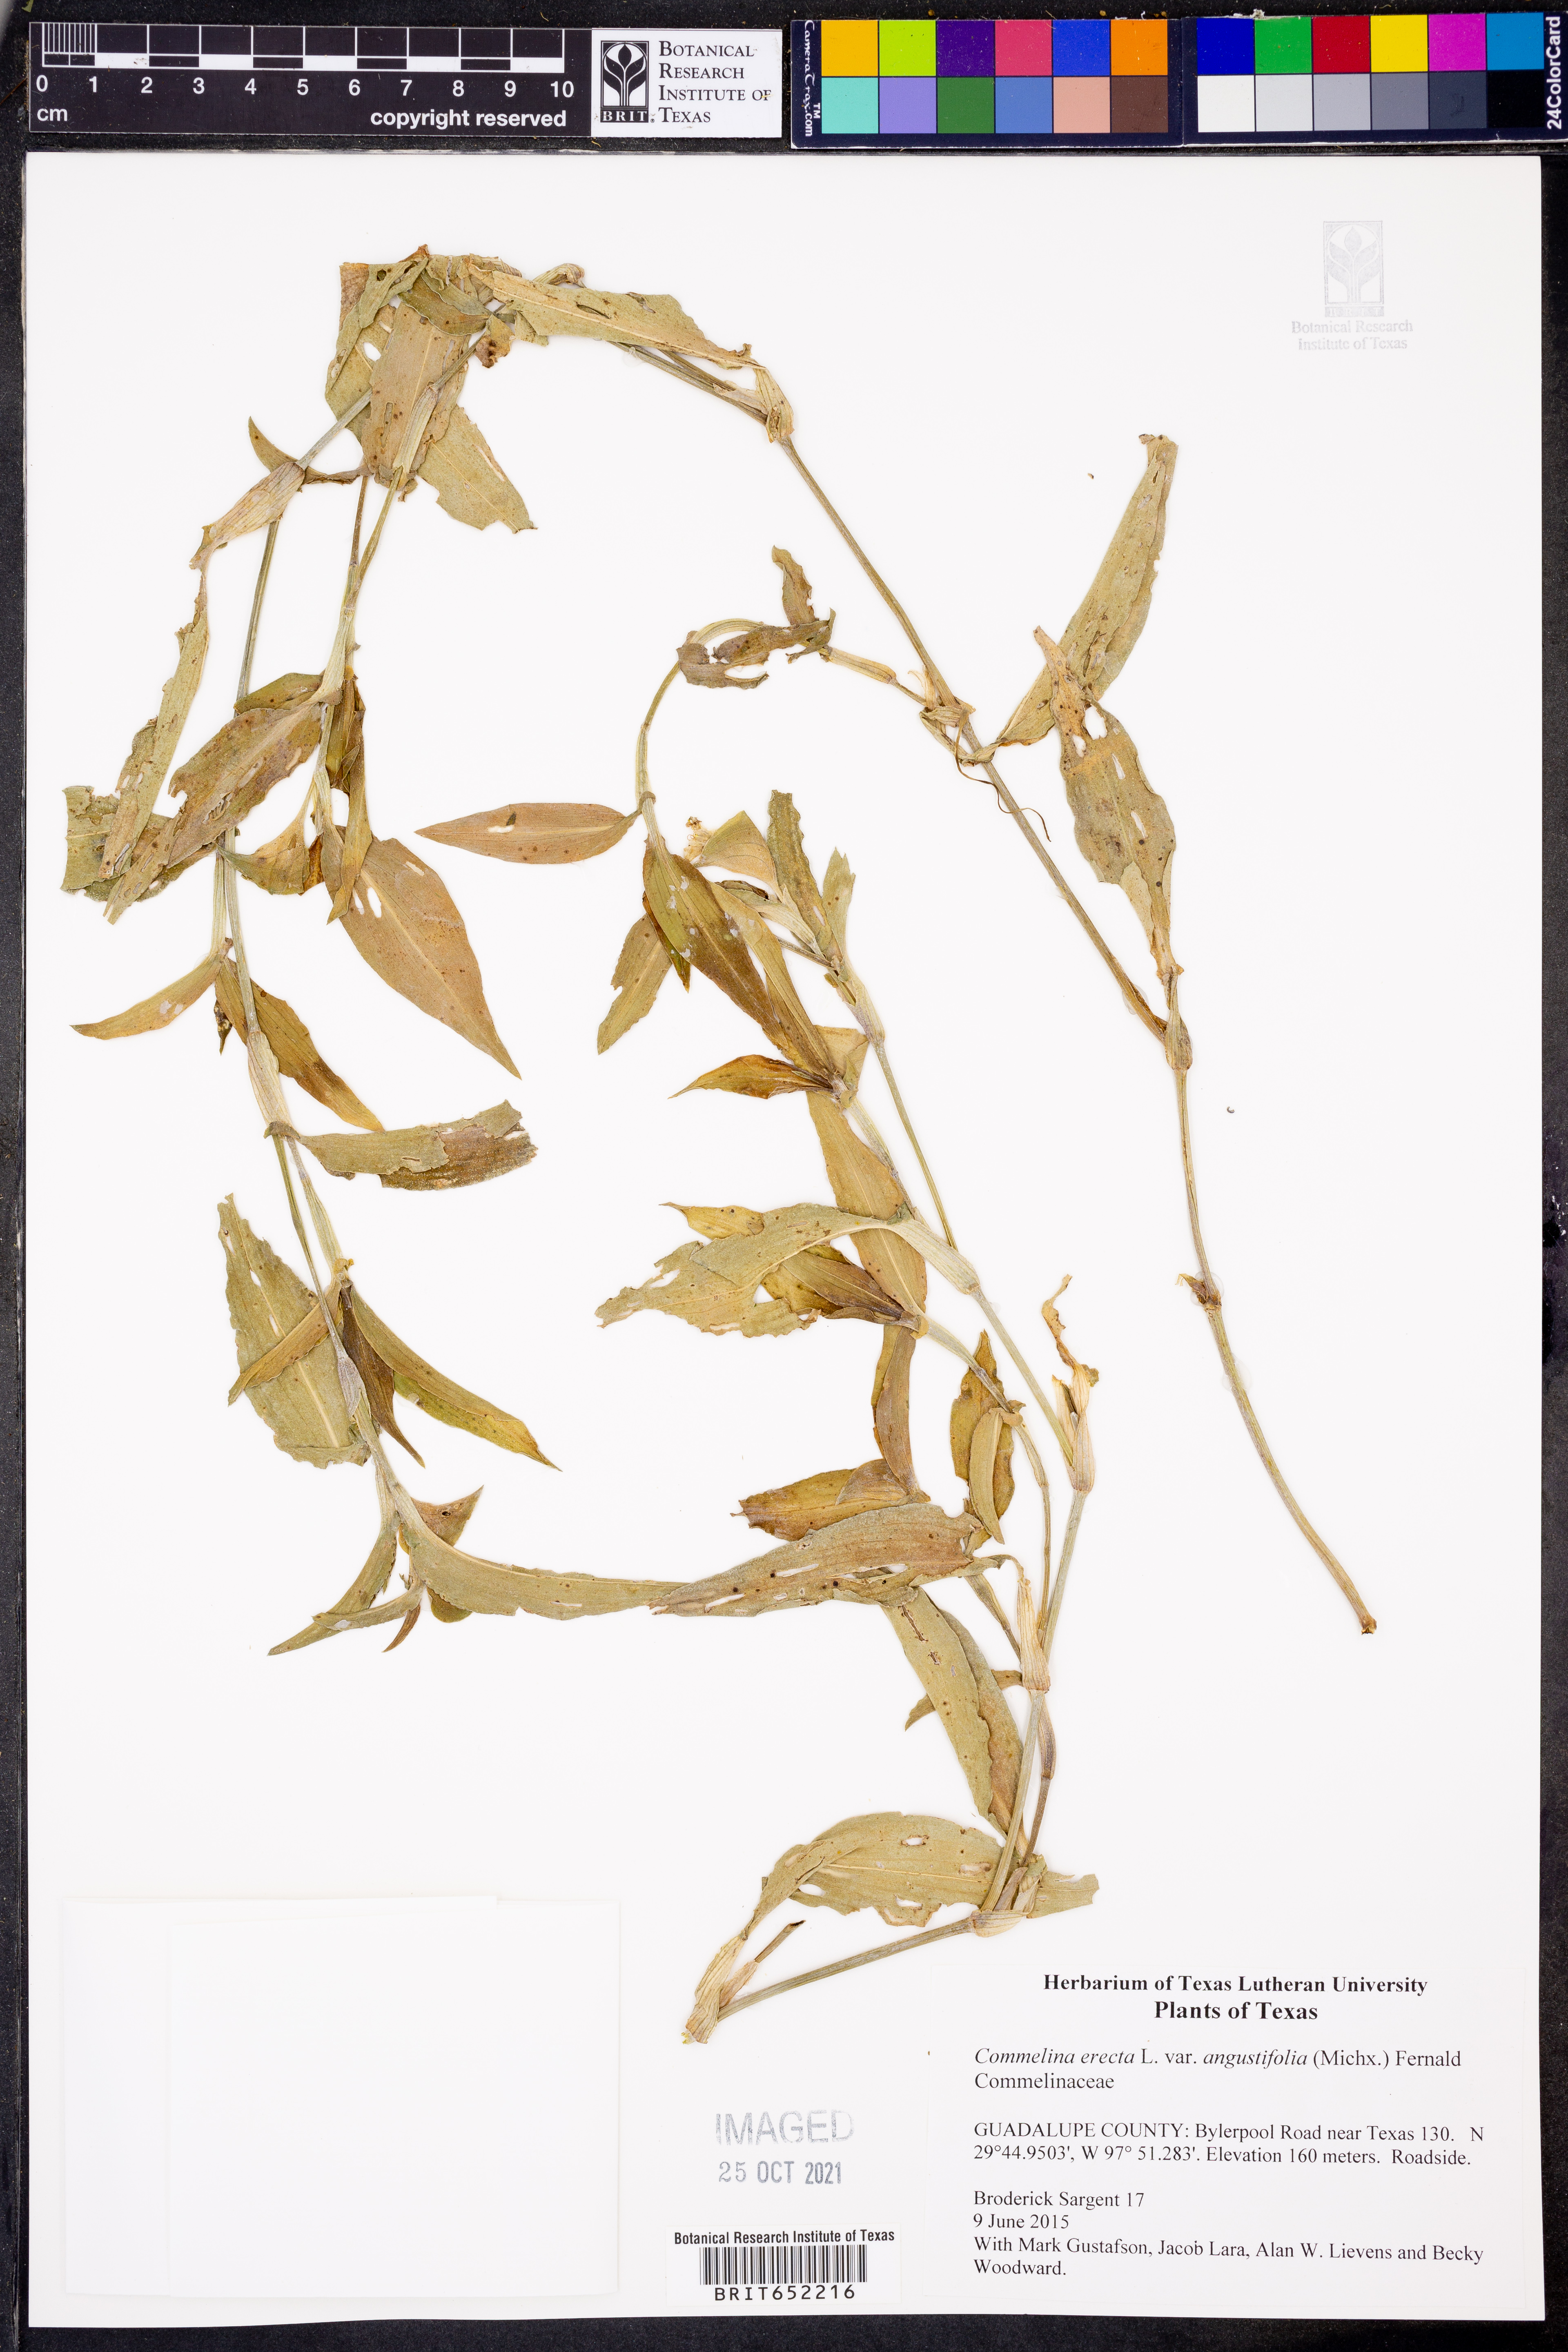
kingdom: Plantae
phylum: Tracheophyta
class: Liliopsida
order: Commelinales
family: Commelinaceae
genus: Commelina
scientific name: Commelina erecta
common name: Blousel blommetjie
